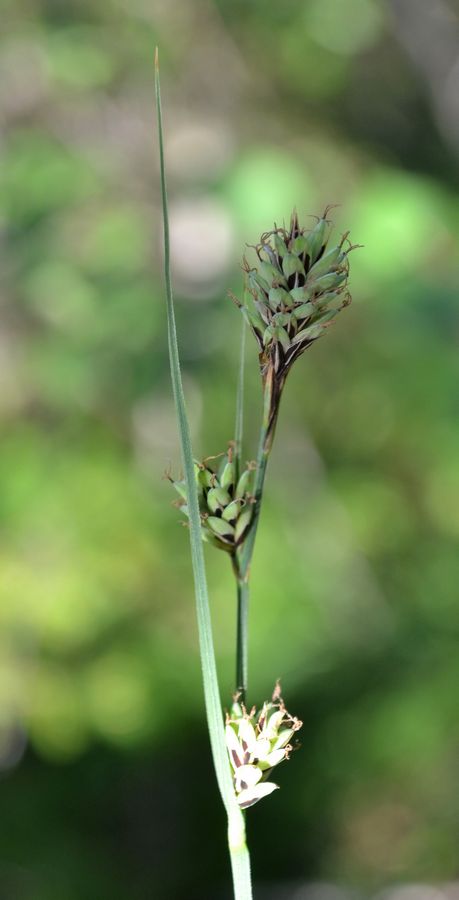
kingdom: Plantae
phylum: Tracheophyta
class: Liliopsida
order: Poales
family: Cyperaceae
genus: Carex
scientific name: Carex buxbaumii
